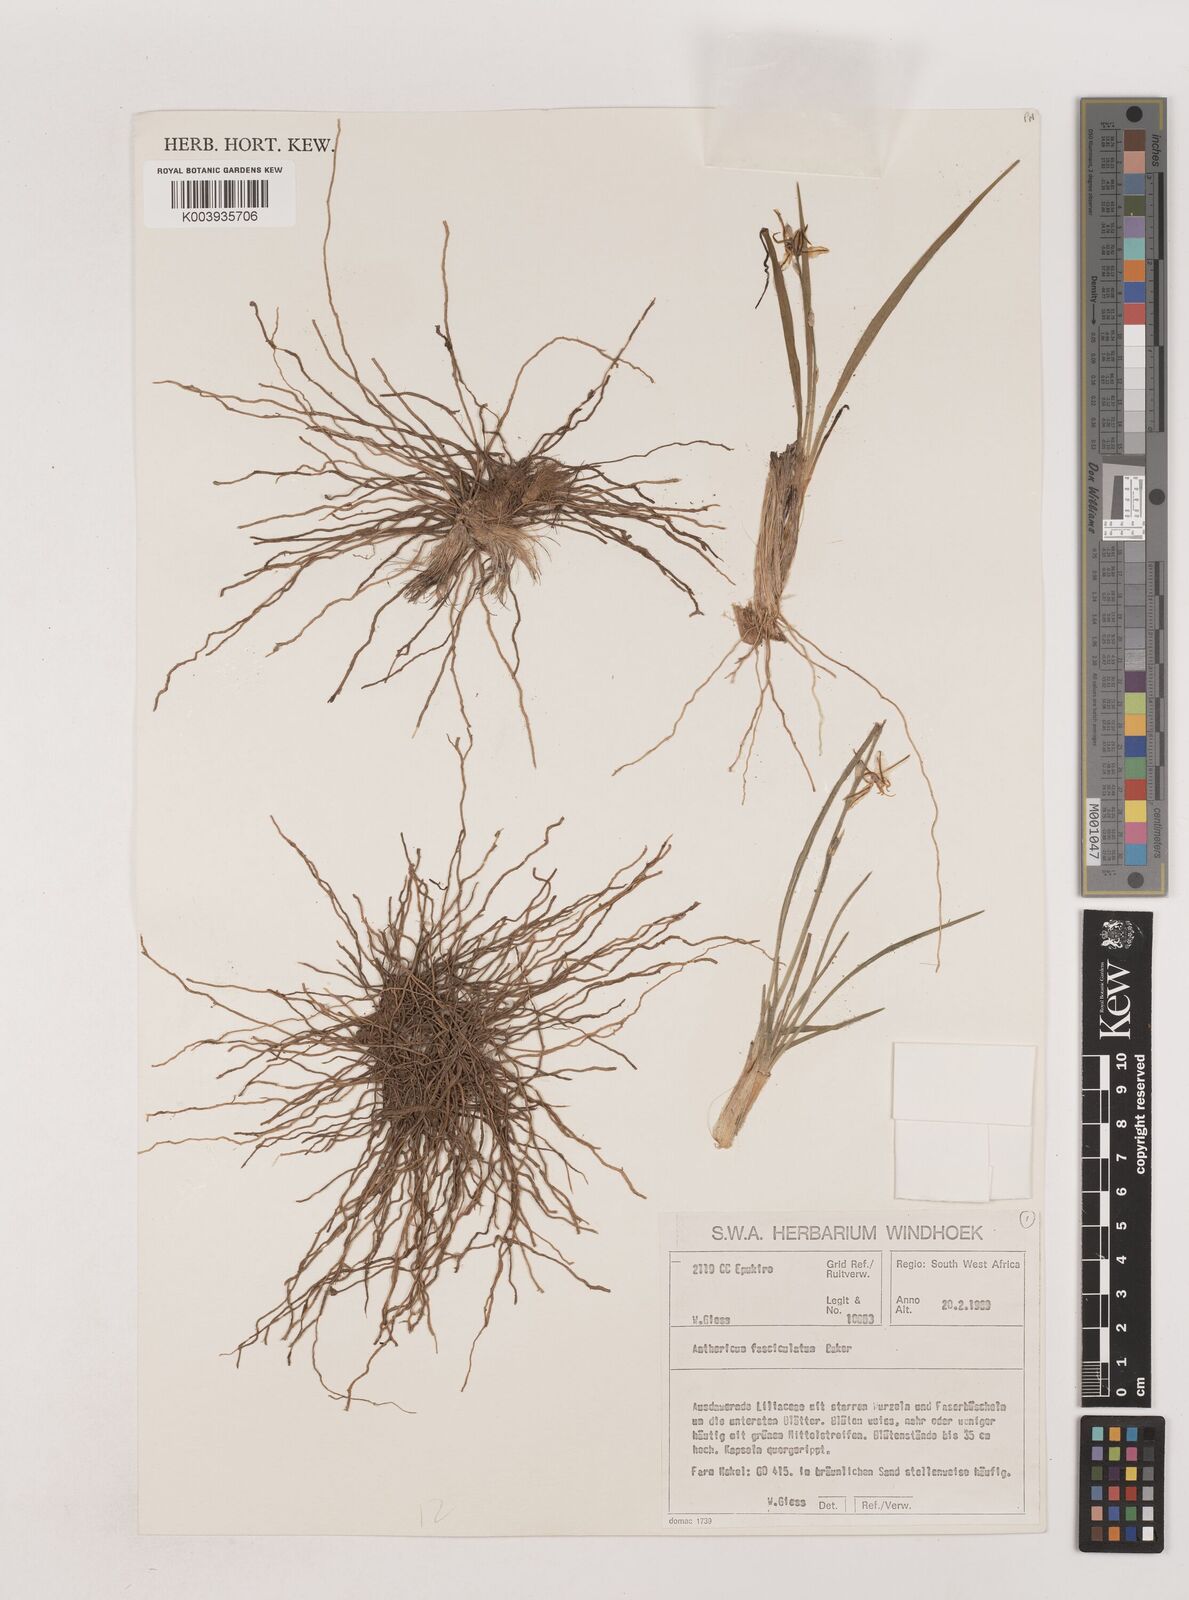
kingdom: Plantae
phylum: Tracheophyta
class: Liliopsida
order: Asparagales
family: Asparagaceae
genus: Chlorophytum
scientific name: Chlorophytum fasciculatum
